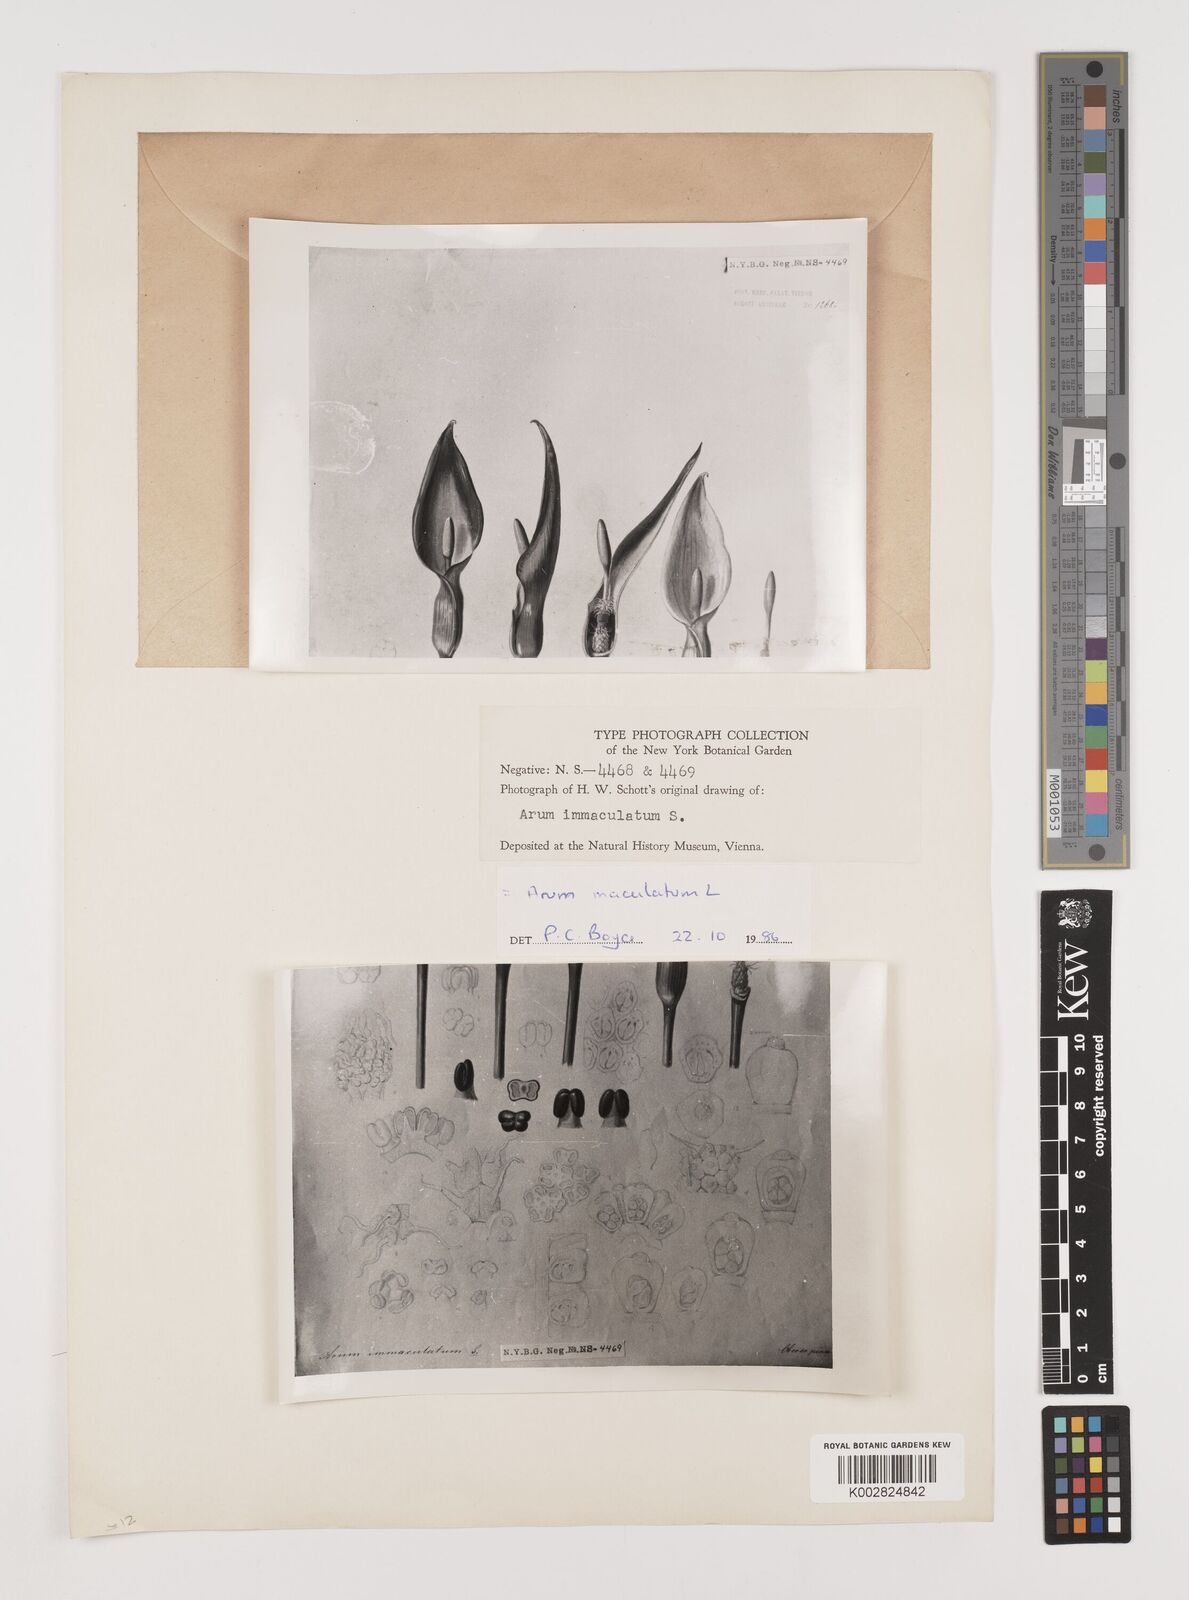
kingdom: Plantae
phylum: Tracheophyta
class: Liliopsida
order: Alismatales
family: Araceae
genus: Arum
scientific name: Arum maculatum
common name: Lords-and-ladies
